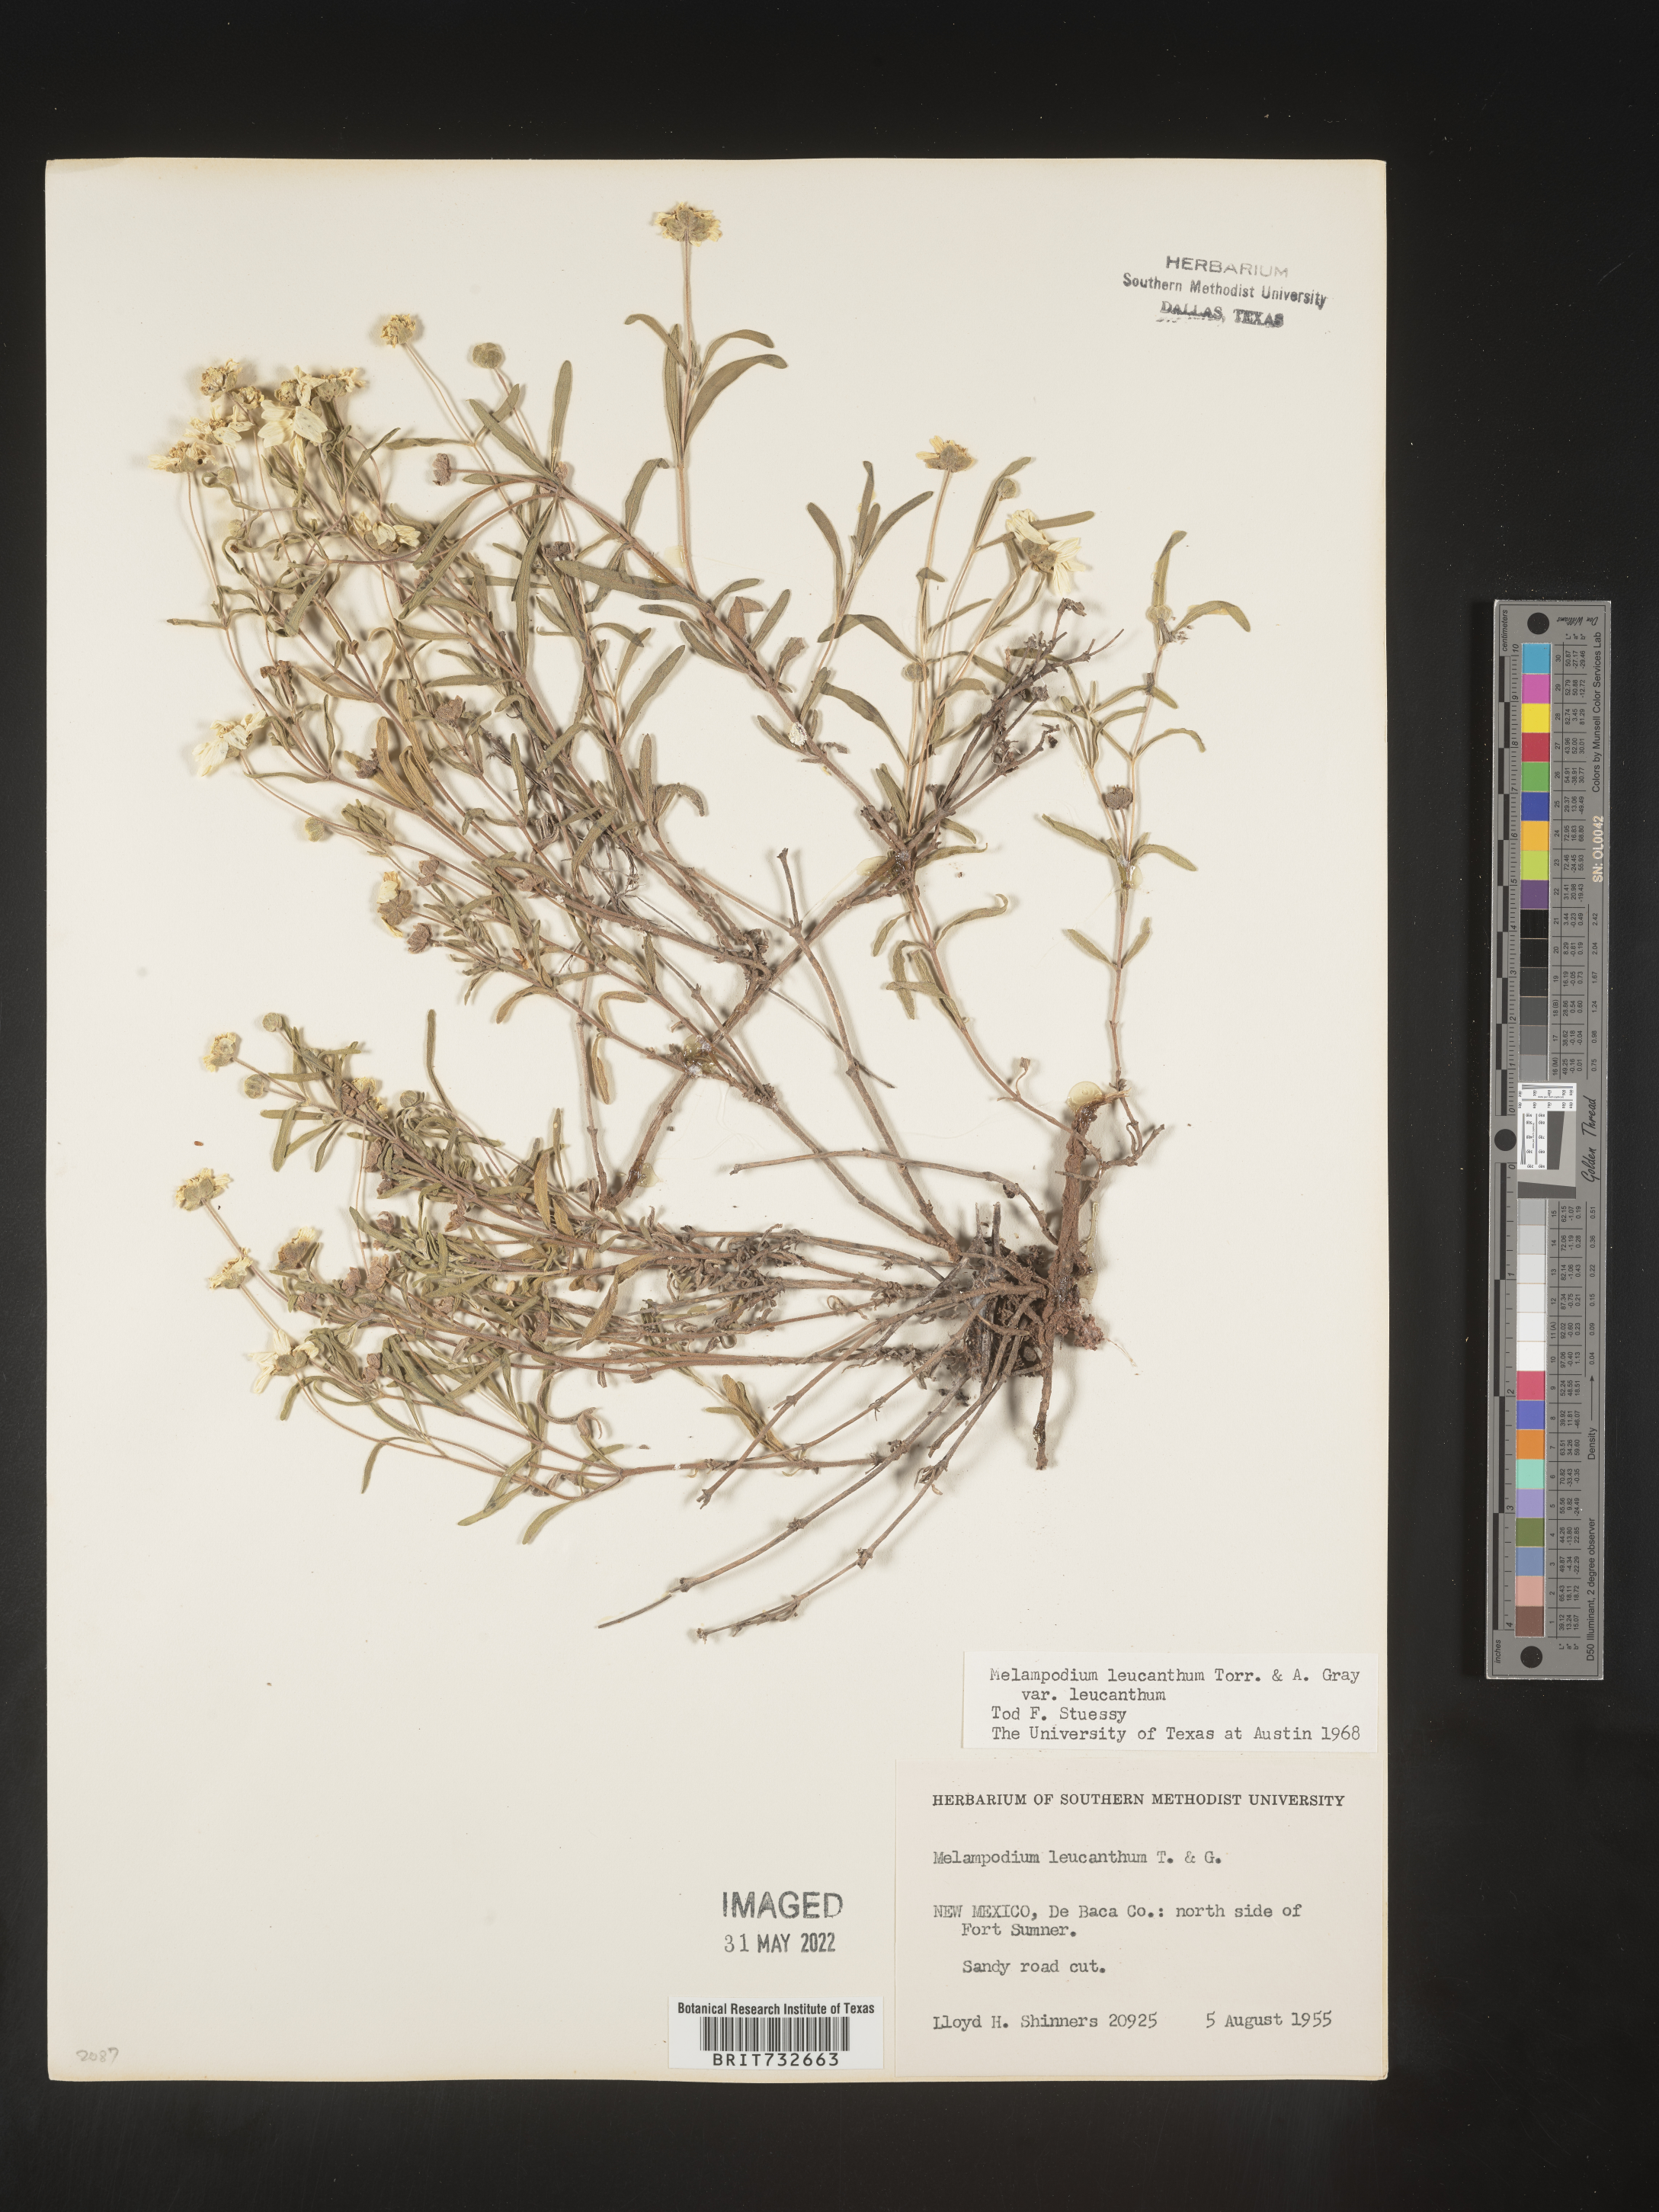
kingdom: Plantae
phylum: Tracheophyta
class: Magnoliopsida
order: Asterales
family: Asteraceae
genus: Melampodium
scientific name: Melampodium leucanthum
